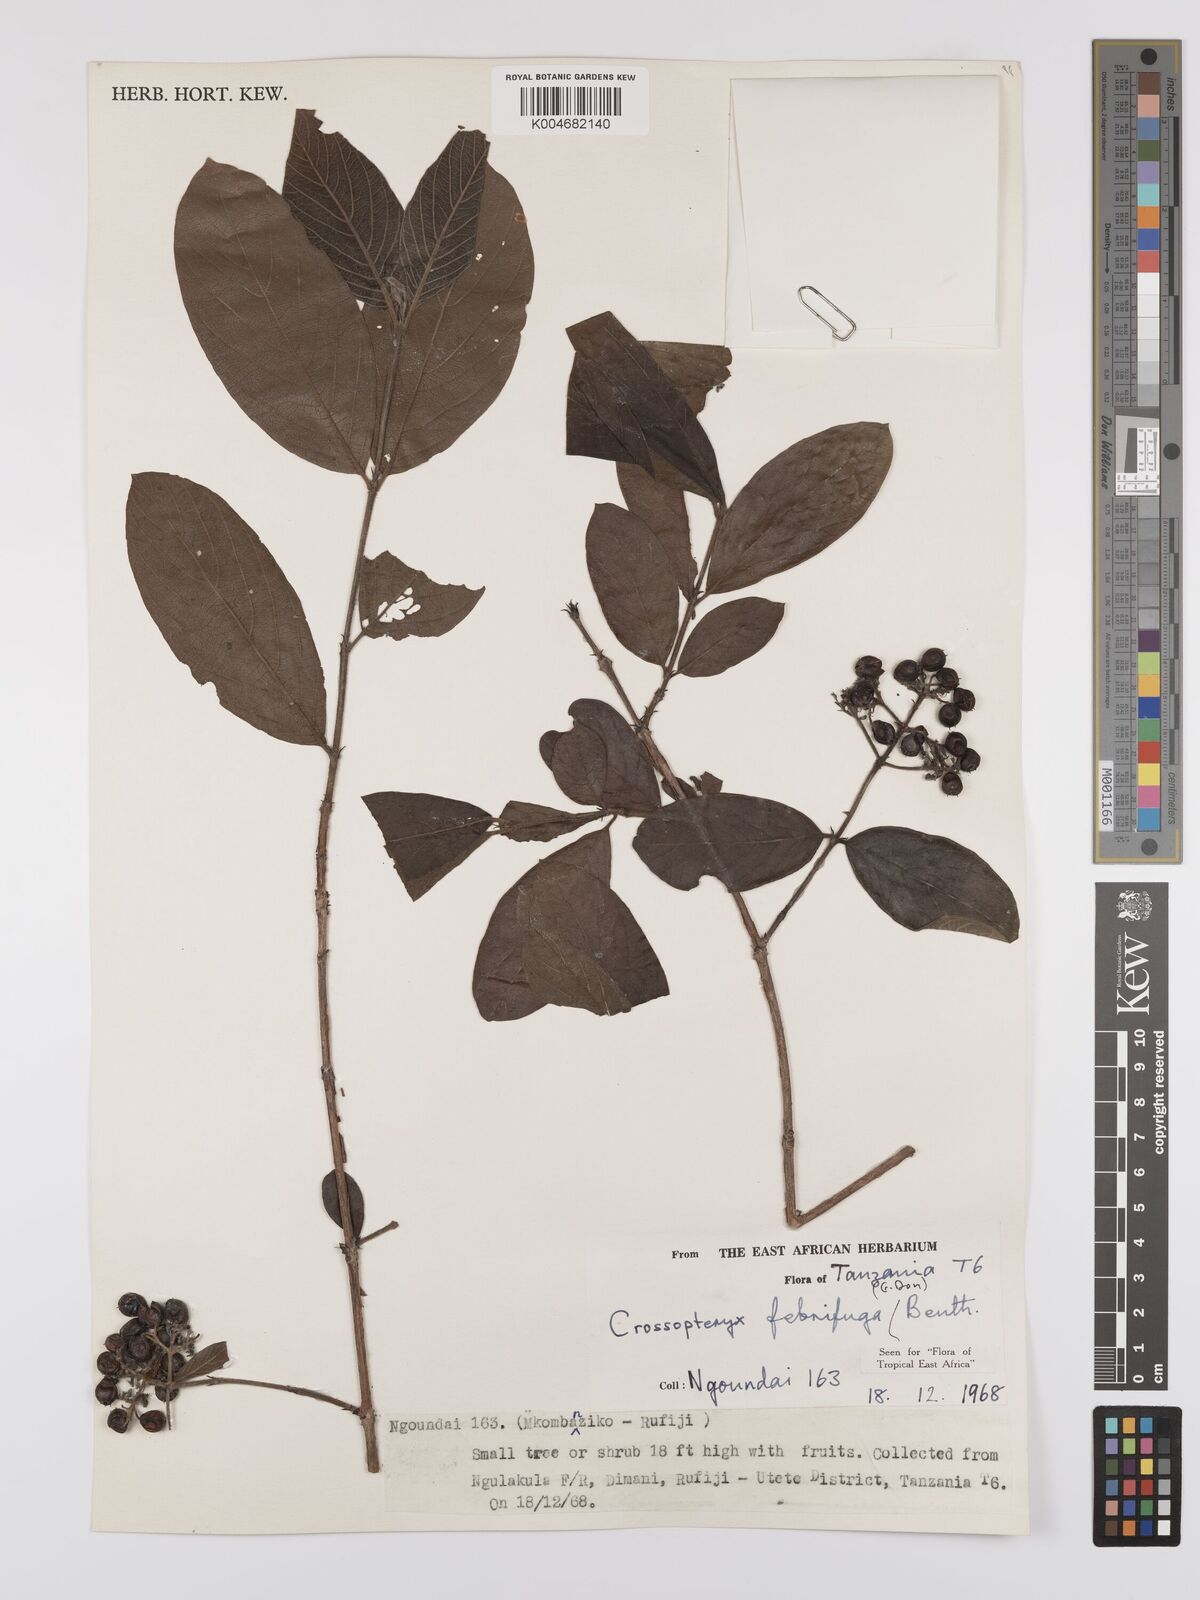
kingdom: Plantae
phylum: Tracheophyta
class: Magnoliopsida
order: Gentianales
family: Rubiaceae
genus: Crossopteryx
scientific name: Crossopteryx febrifuga
